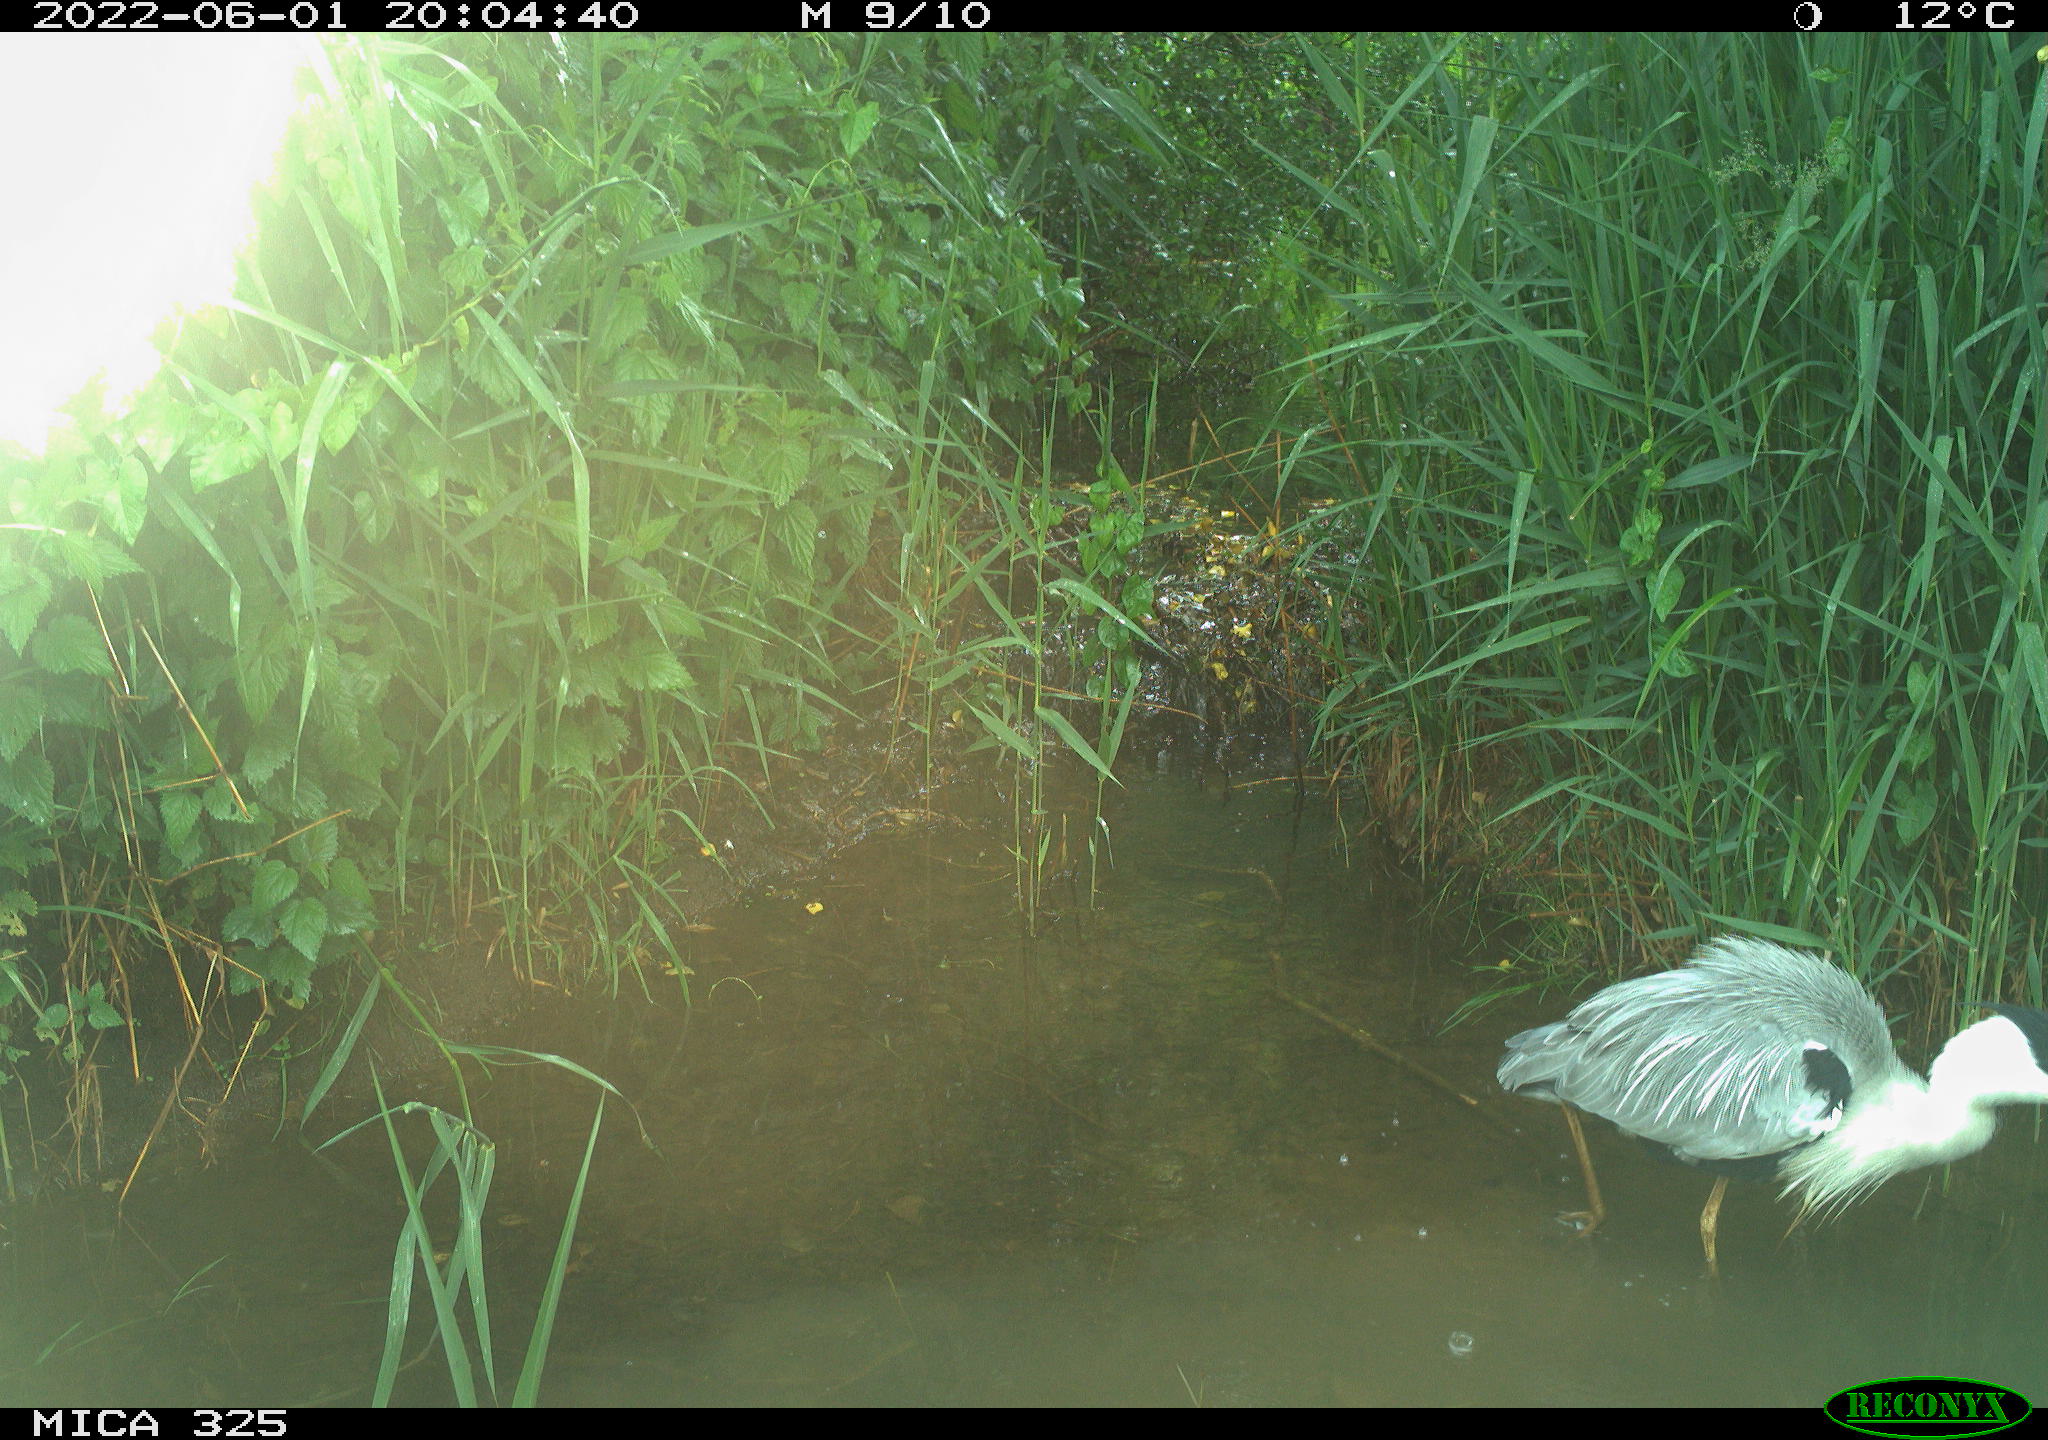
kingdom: Animalia
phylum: Chordata
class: Aves
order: Pelecaniformes
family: Ardeidae
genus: Ardea
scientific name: Ardea cinerea
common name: Grey heron
